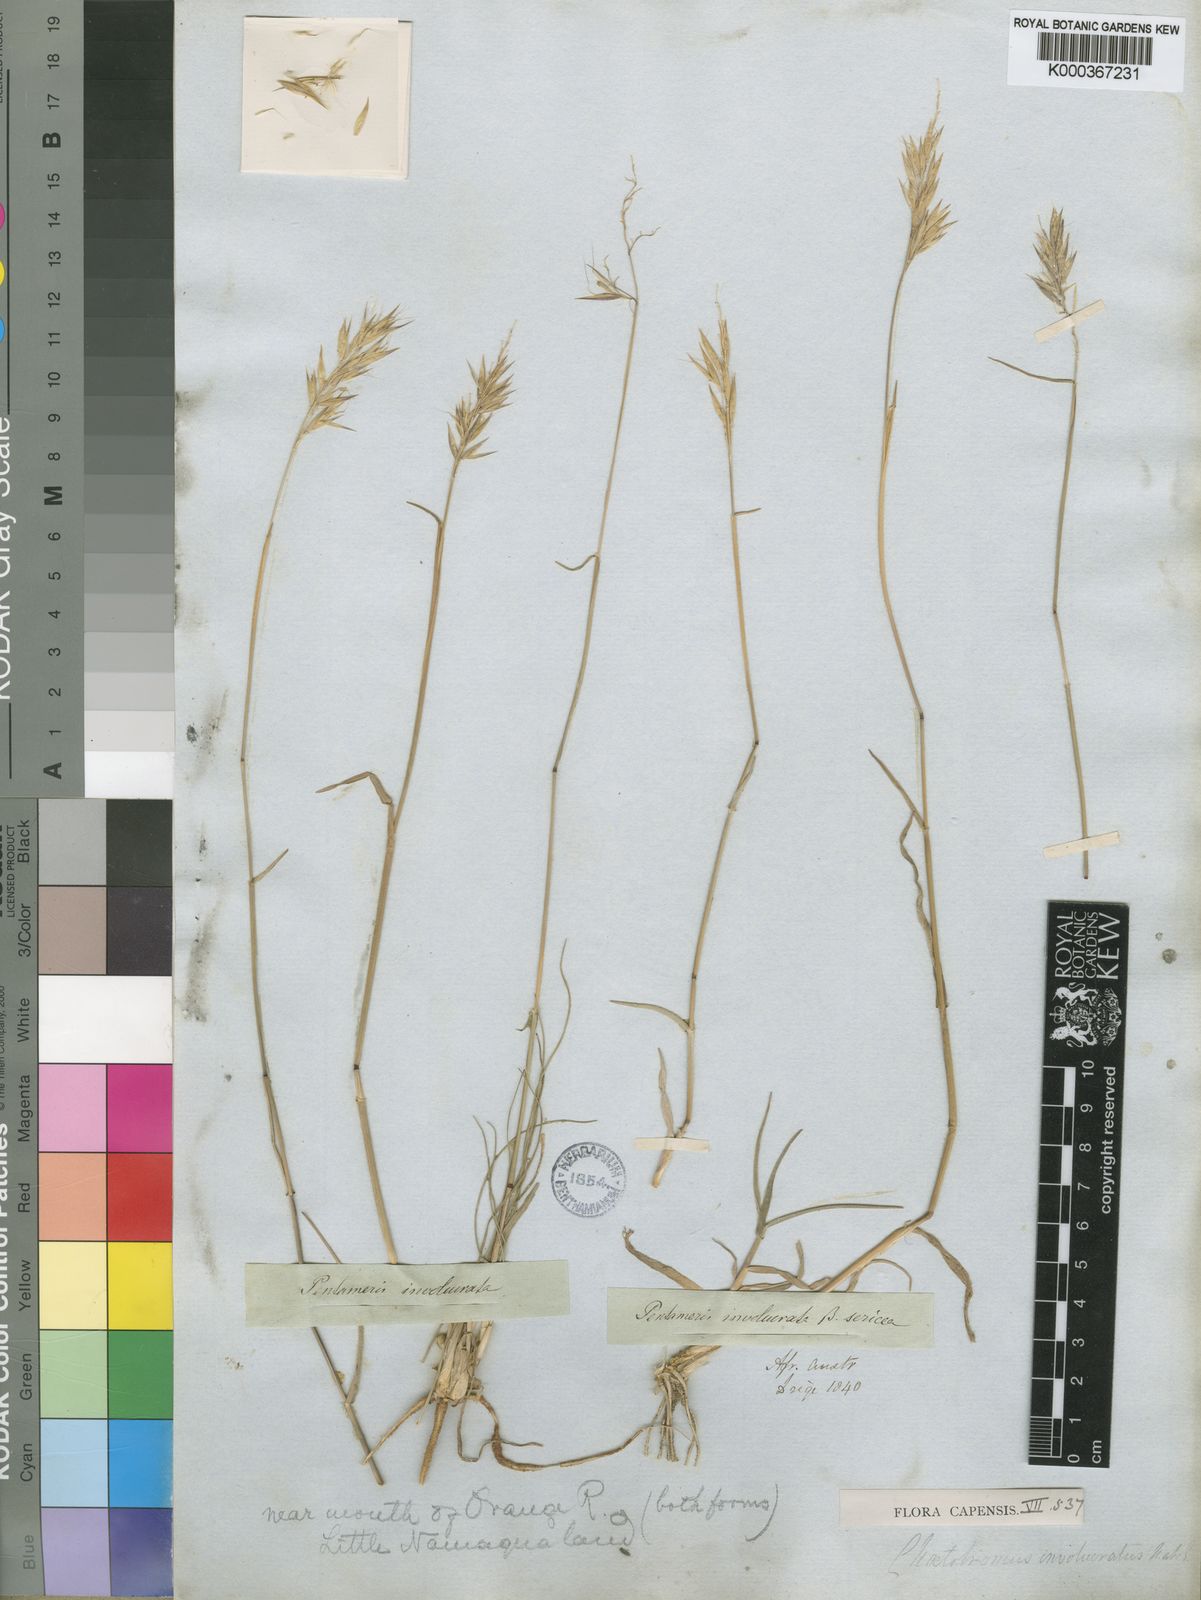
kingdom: Plantae
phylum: Tracheophyta
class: Liliopsida
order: Poales
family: Poaceae
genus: Chaetobromus
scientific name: Chaetobromus involucratus
